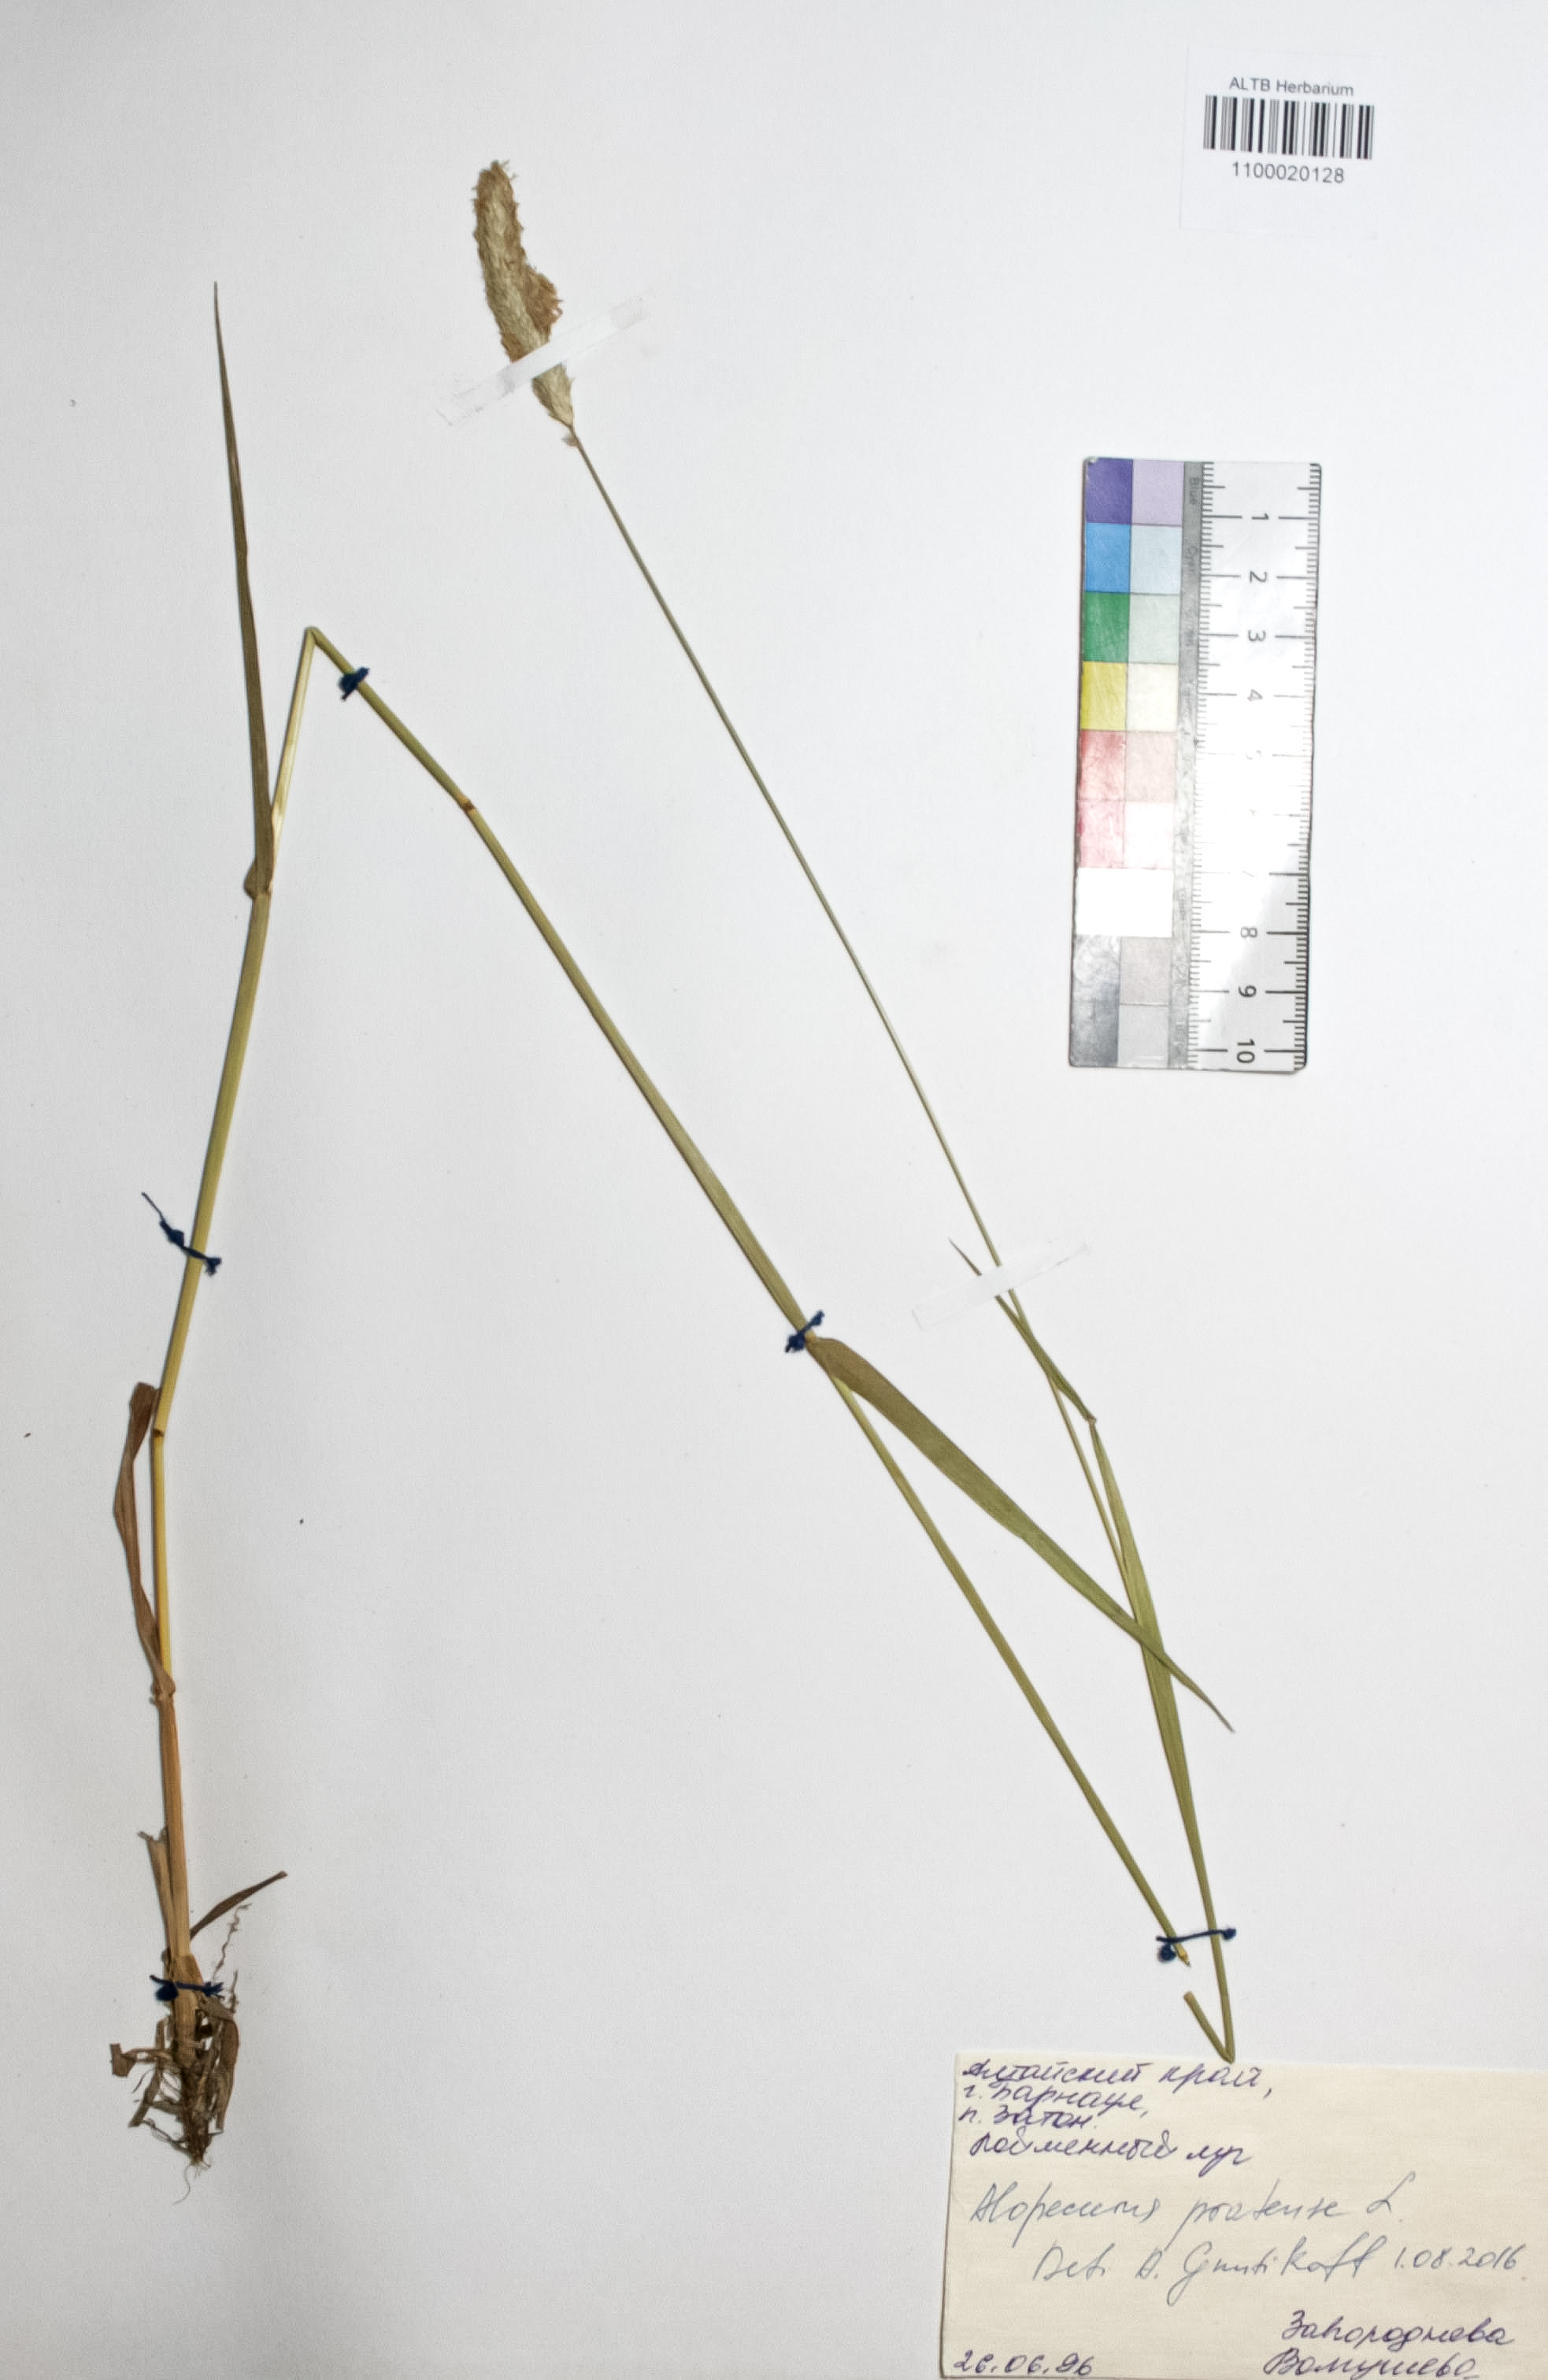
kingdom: Plantae
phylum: Tracheophyta
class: Liliopsida
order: Poales
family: Poaceae
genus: Alopecurus
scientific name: Alopecurus pratensis
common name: Meadow foxtail
